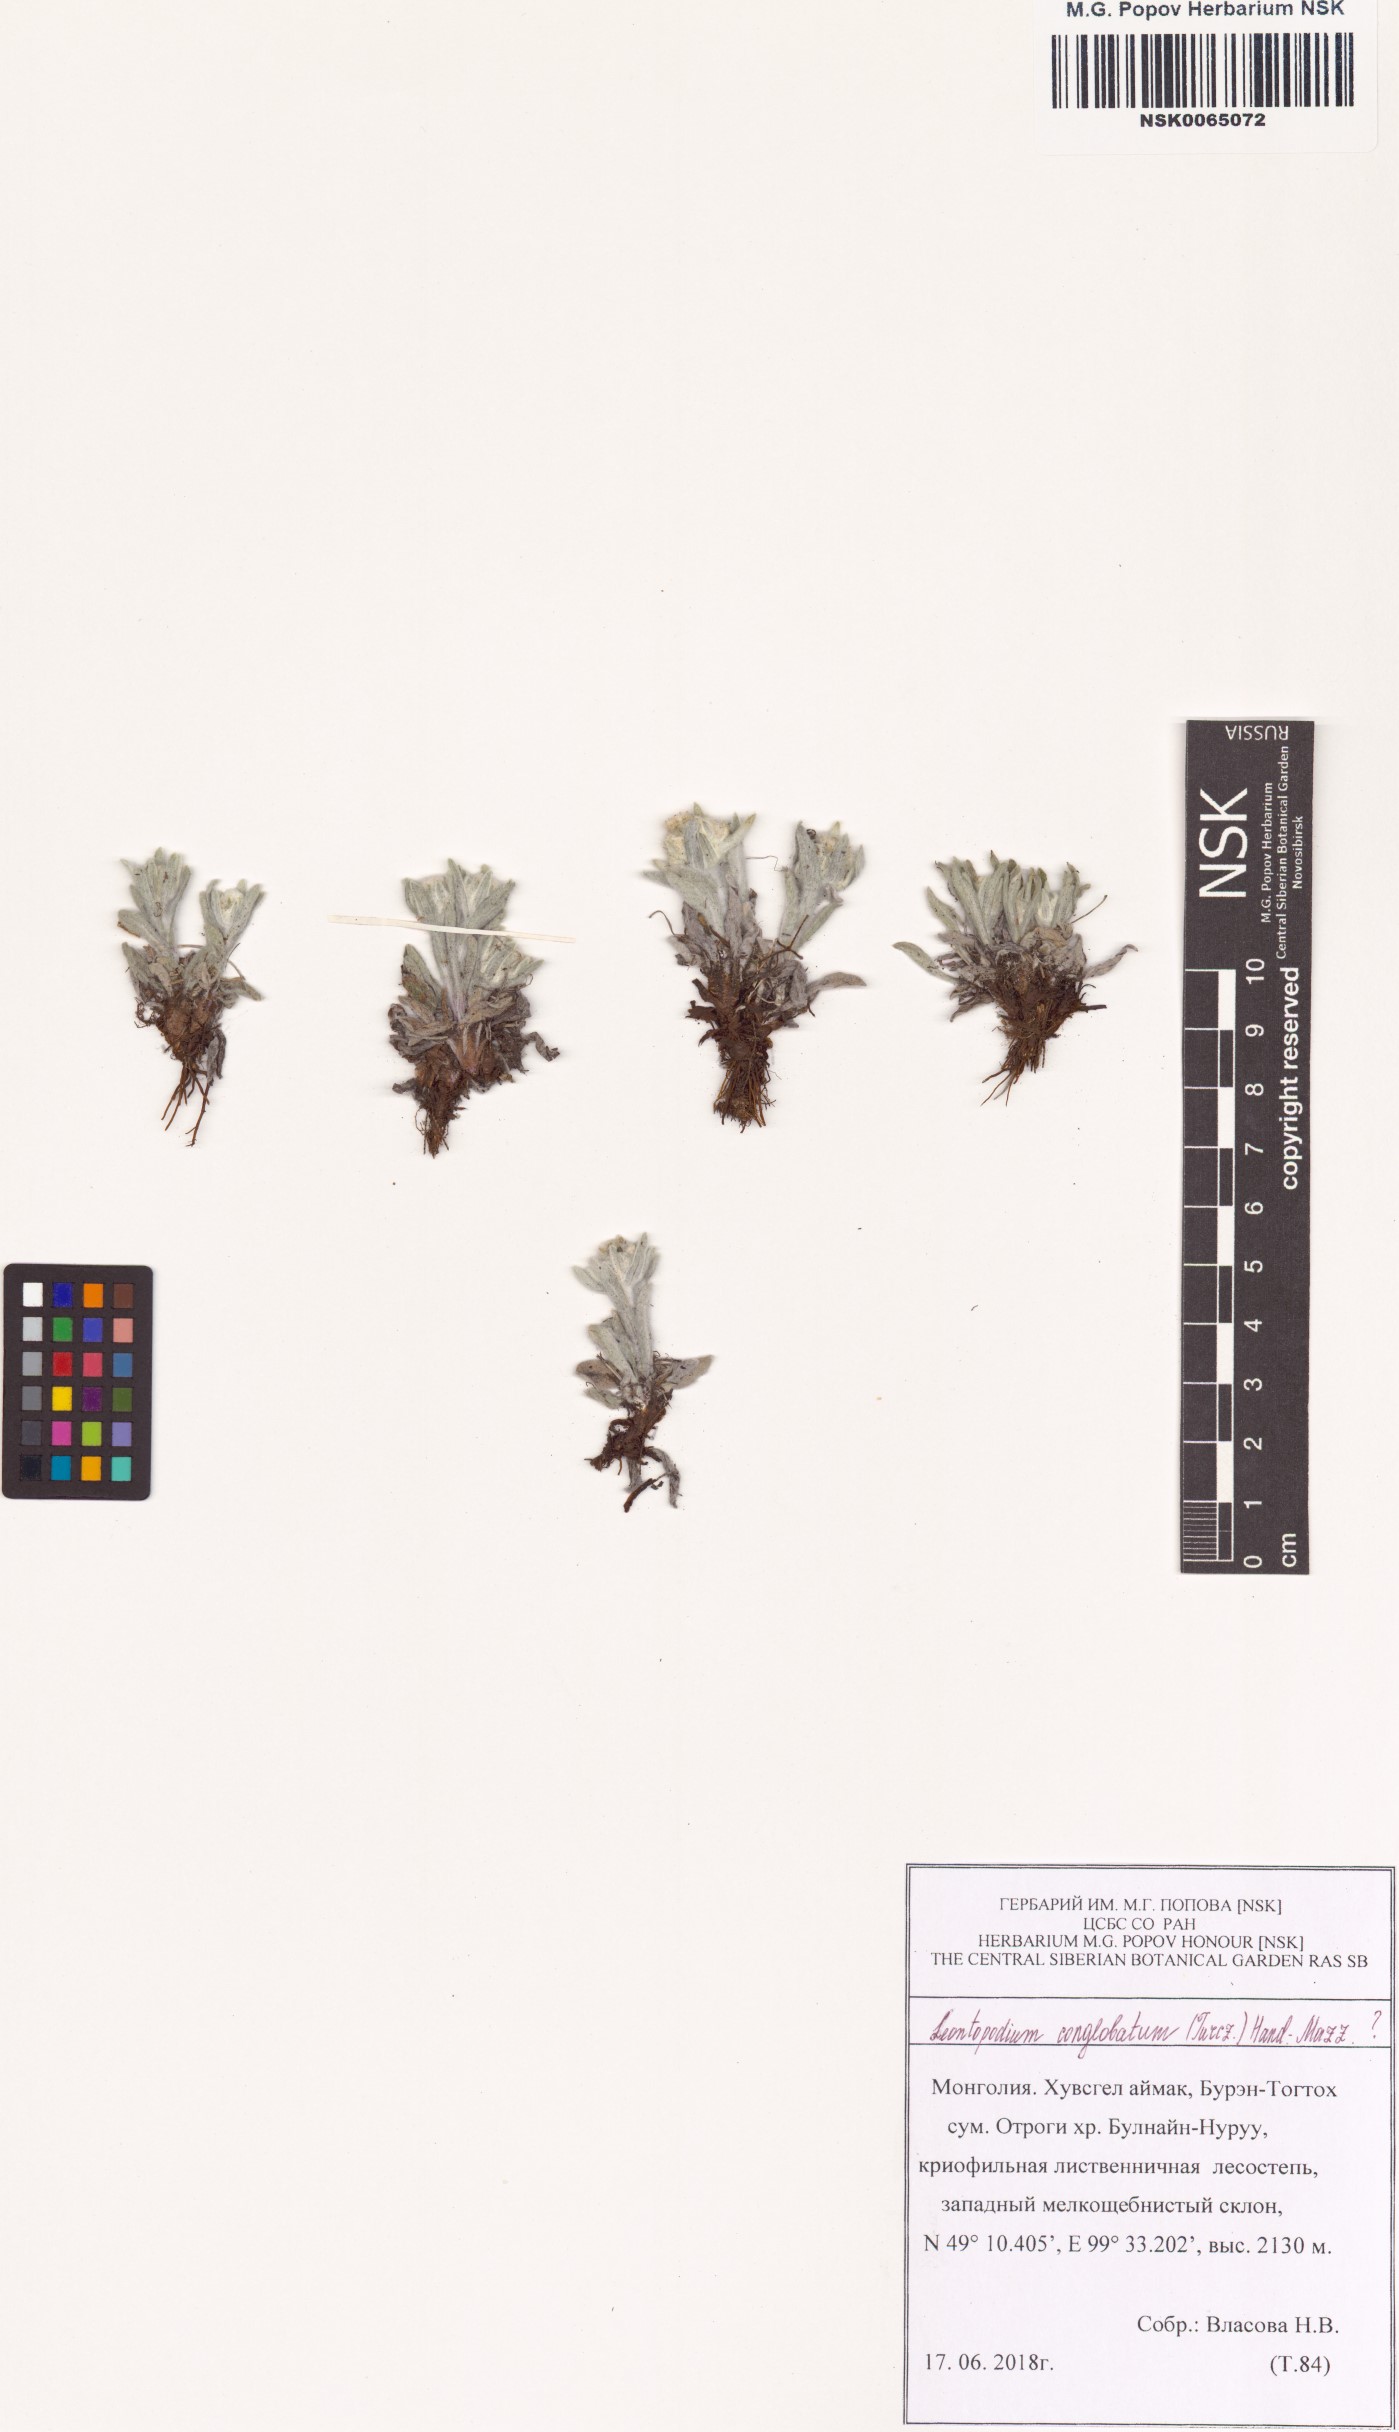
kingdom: Plantae
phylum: Tracheophyta
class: Magnoliopsida
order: Asterales
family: Asteraceae
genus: Leontopodium
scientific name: Leontopodium conglobatum
